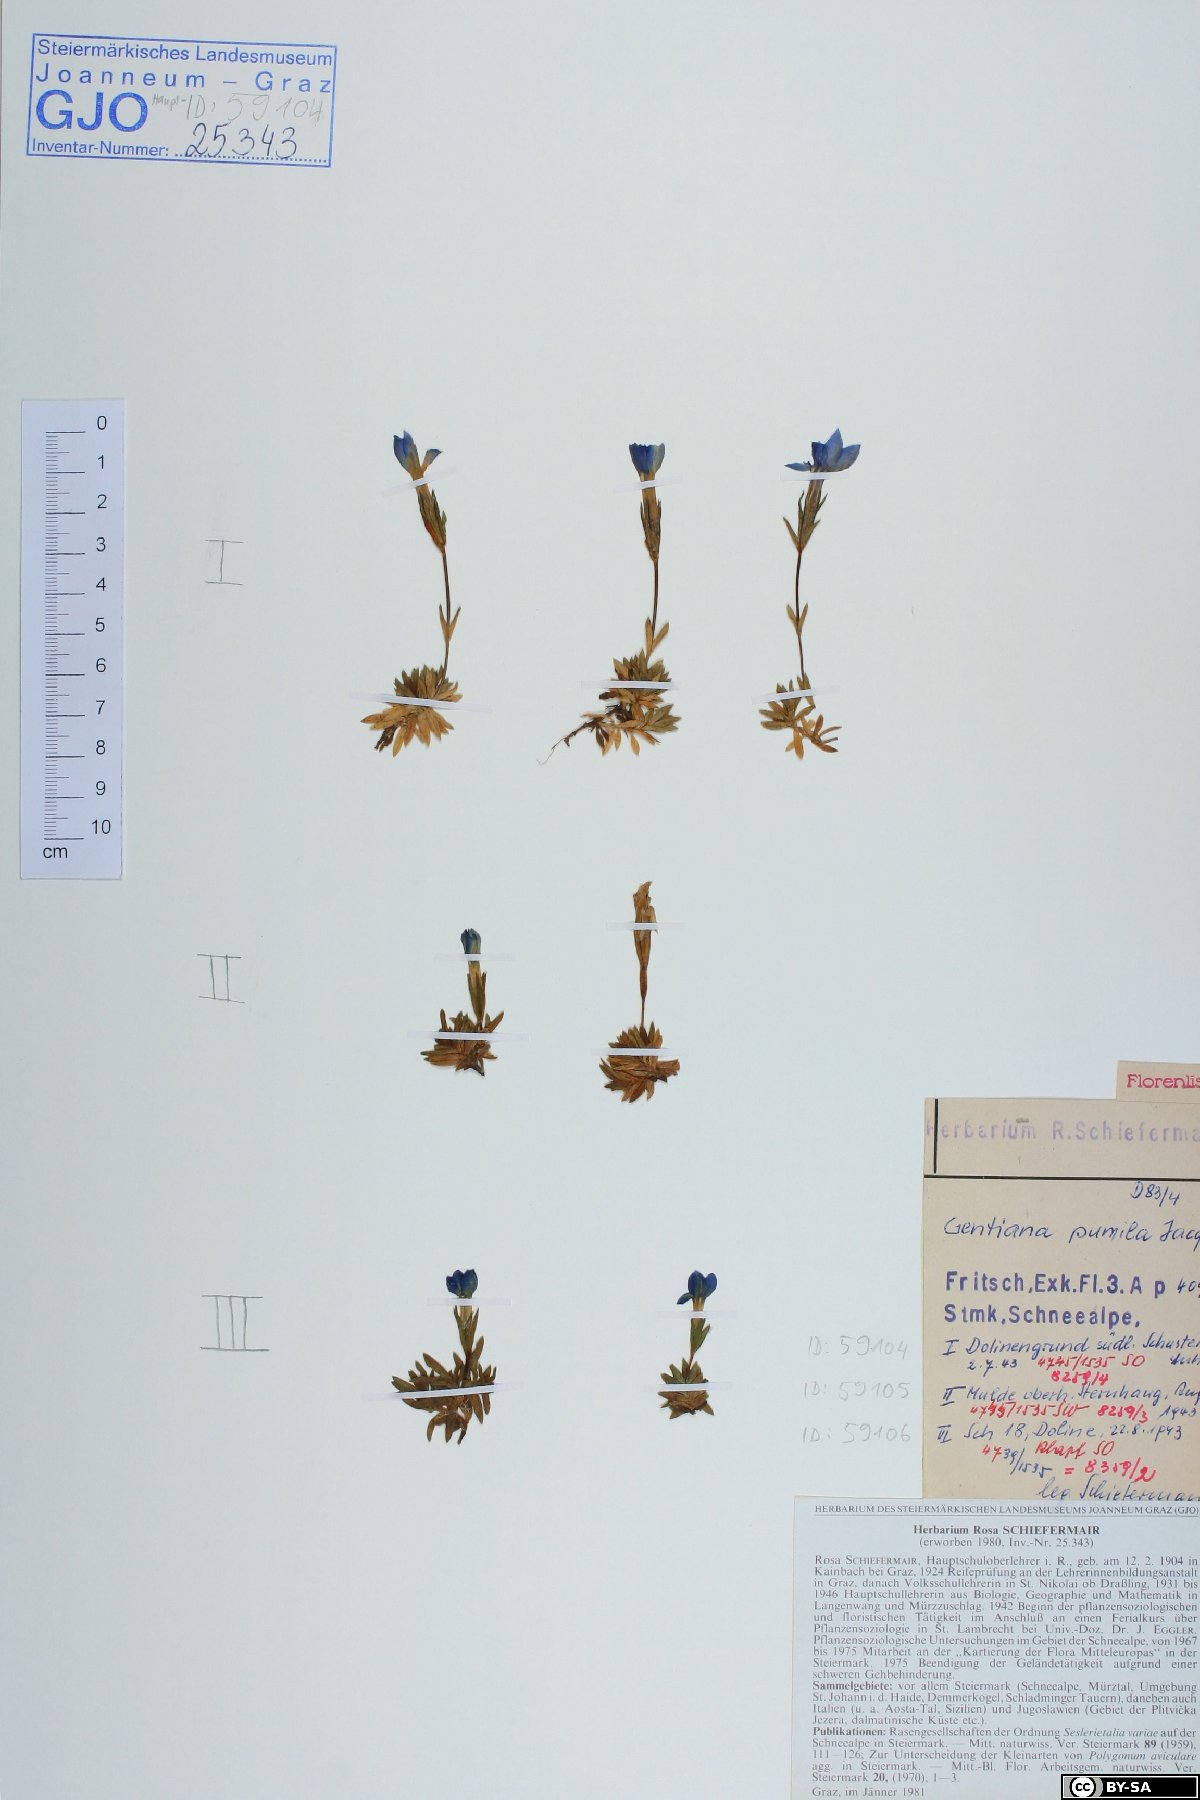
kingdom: Plantae
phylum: Tracheophyta
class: Magnoliopsida
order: Gentianales
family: Gentianaceae
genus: Gentiana
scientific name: Gentiana pumila
